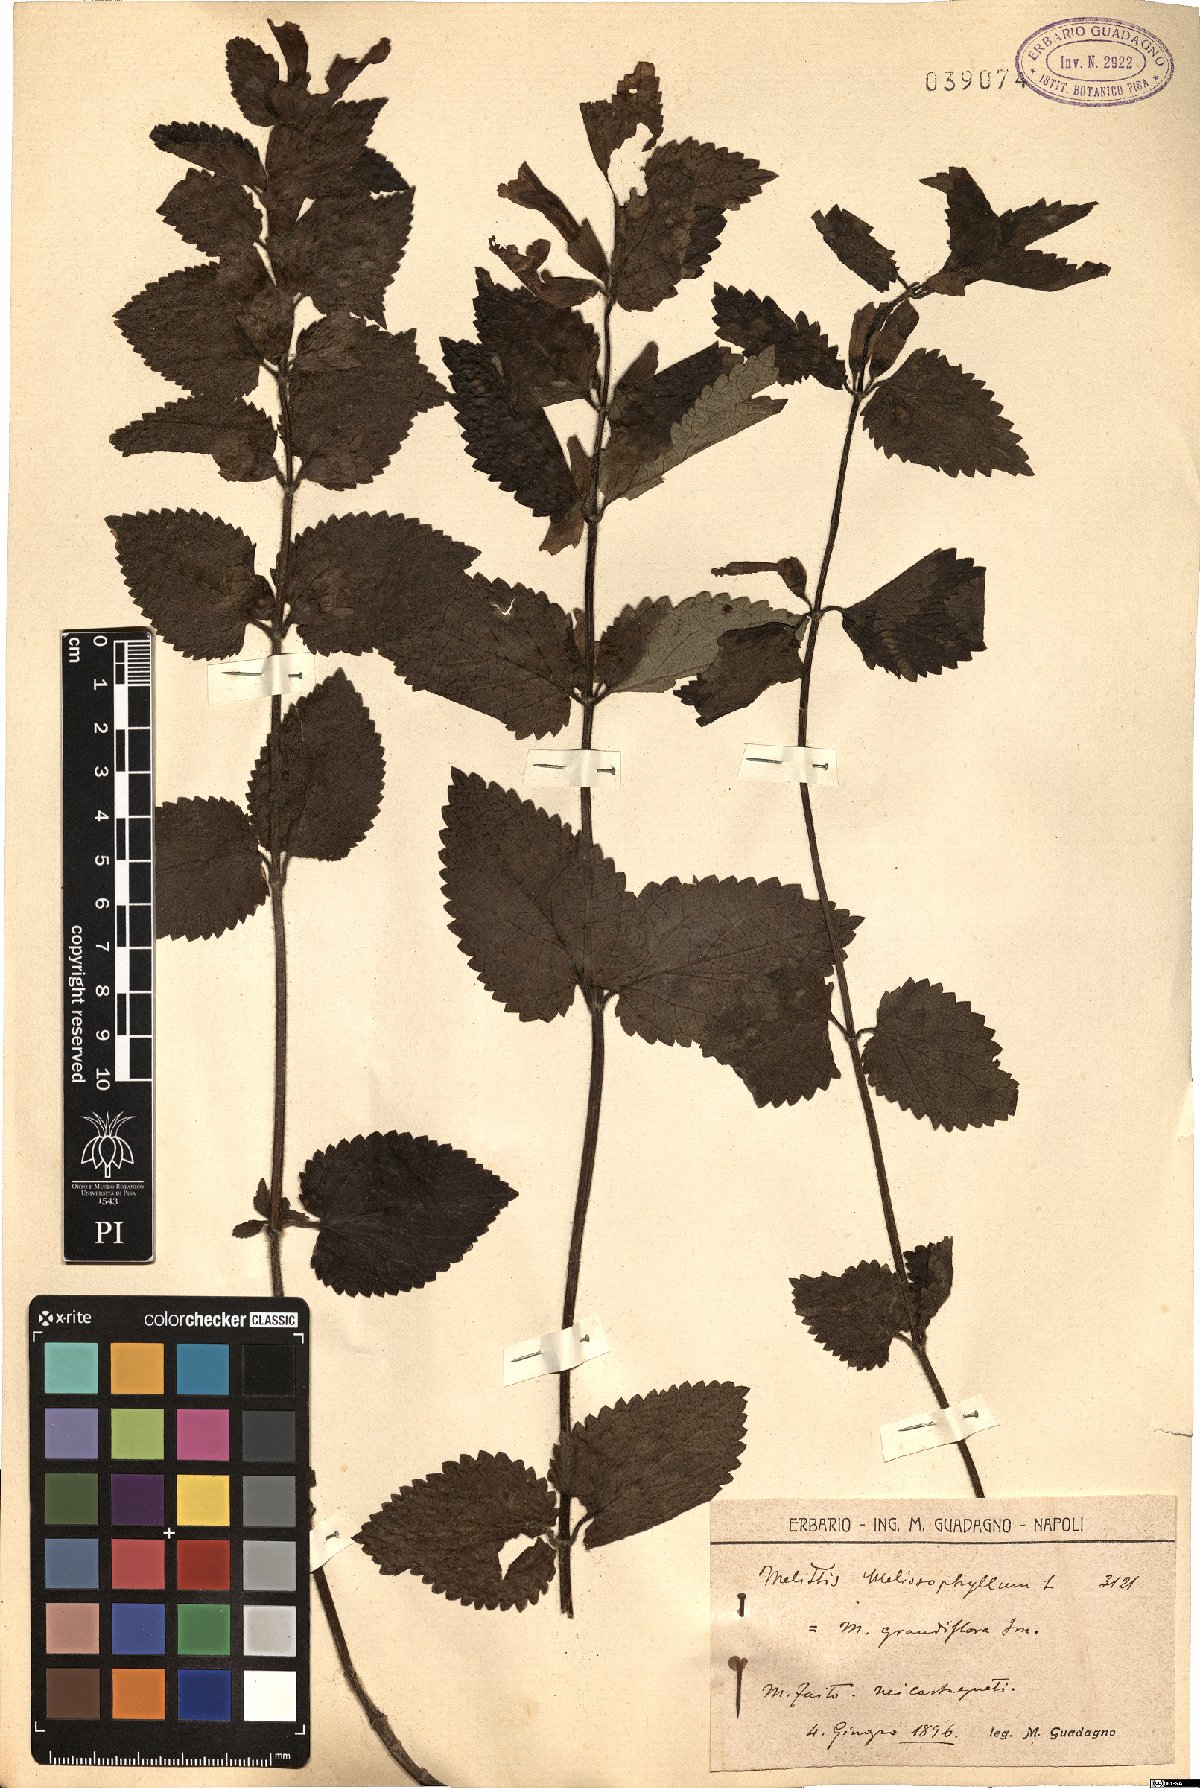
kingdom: Plantae
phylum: Tracheophyta
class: Magnoliopsida
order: Lamiales
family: Lamiaceae
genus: Melittis
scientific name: Melittis melissophyllum
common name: Bastard balm
